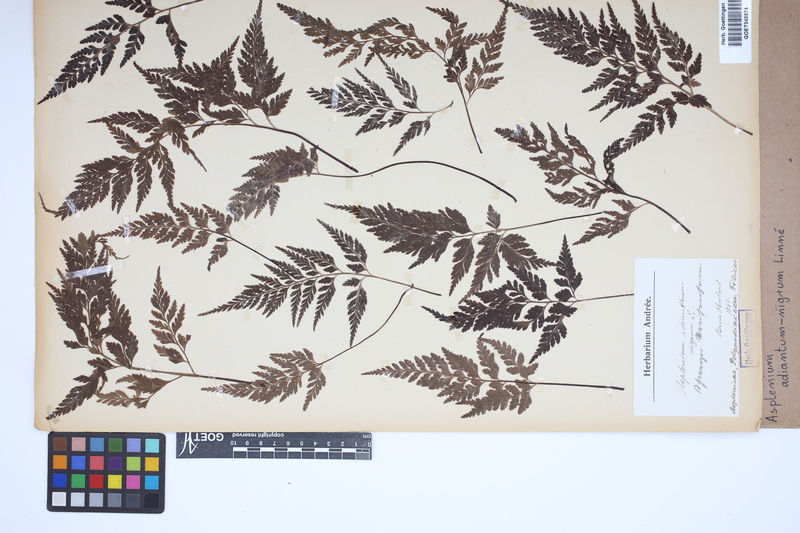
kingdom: Plantae
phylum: Tracheophyta
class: Polypodiopsida
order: Polypodiales
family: Aspleniaceae
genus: Asplenium
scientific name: Asplenium adiantum-nigrum
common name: Black spleenwort
